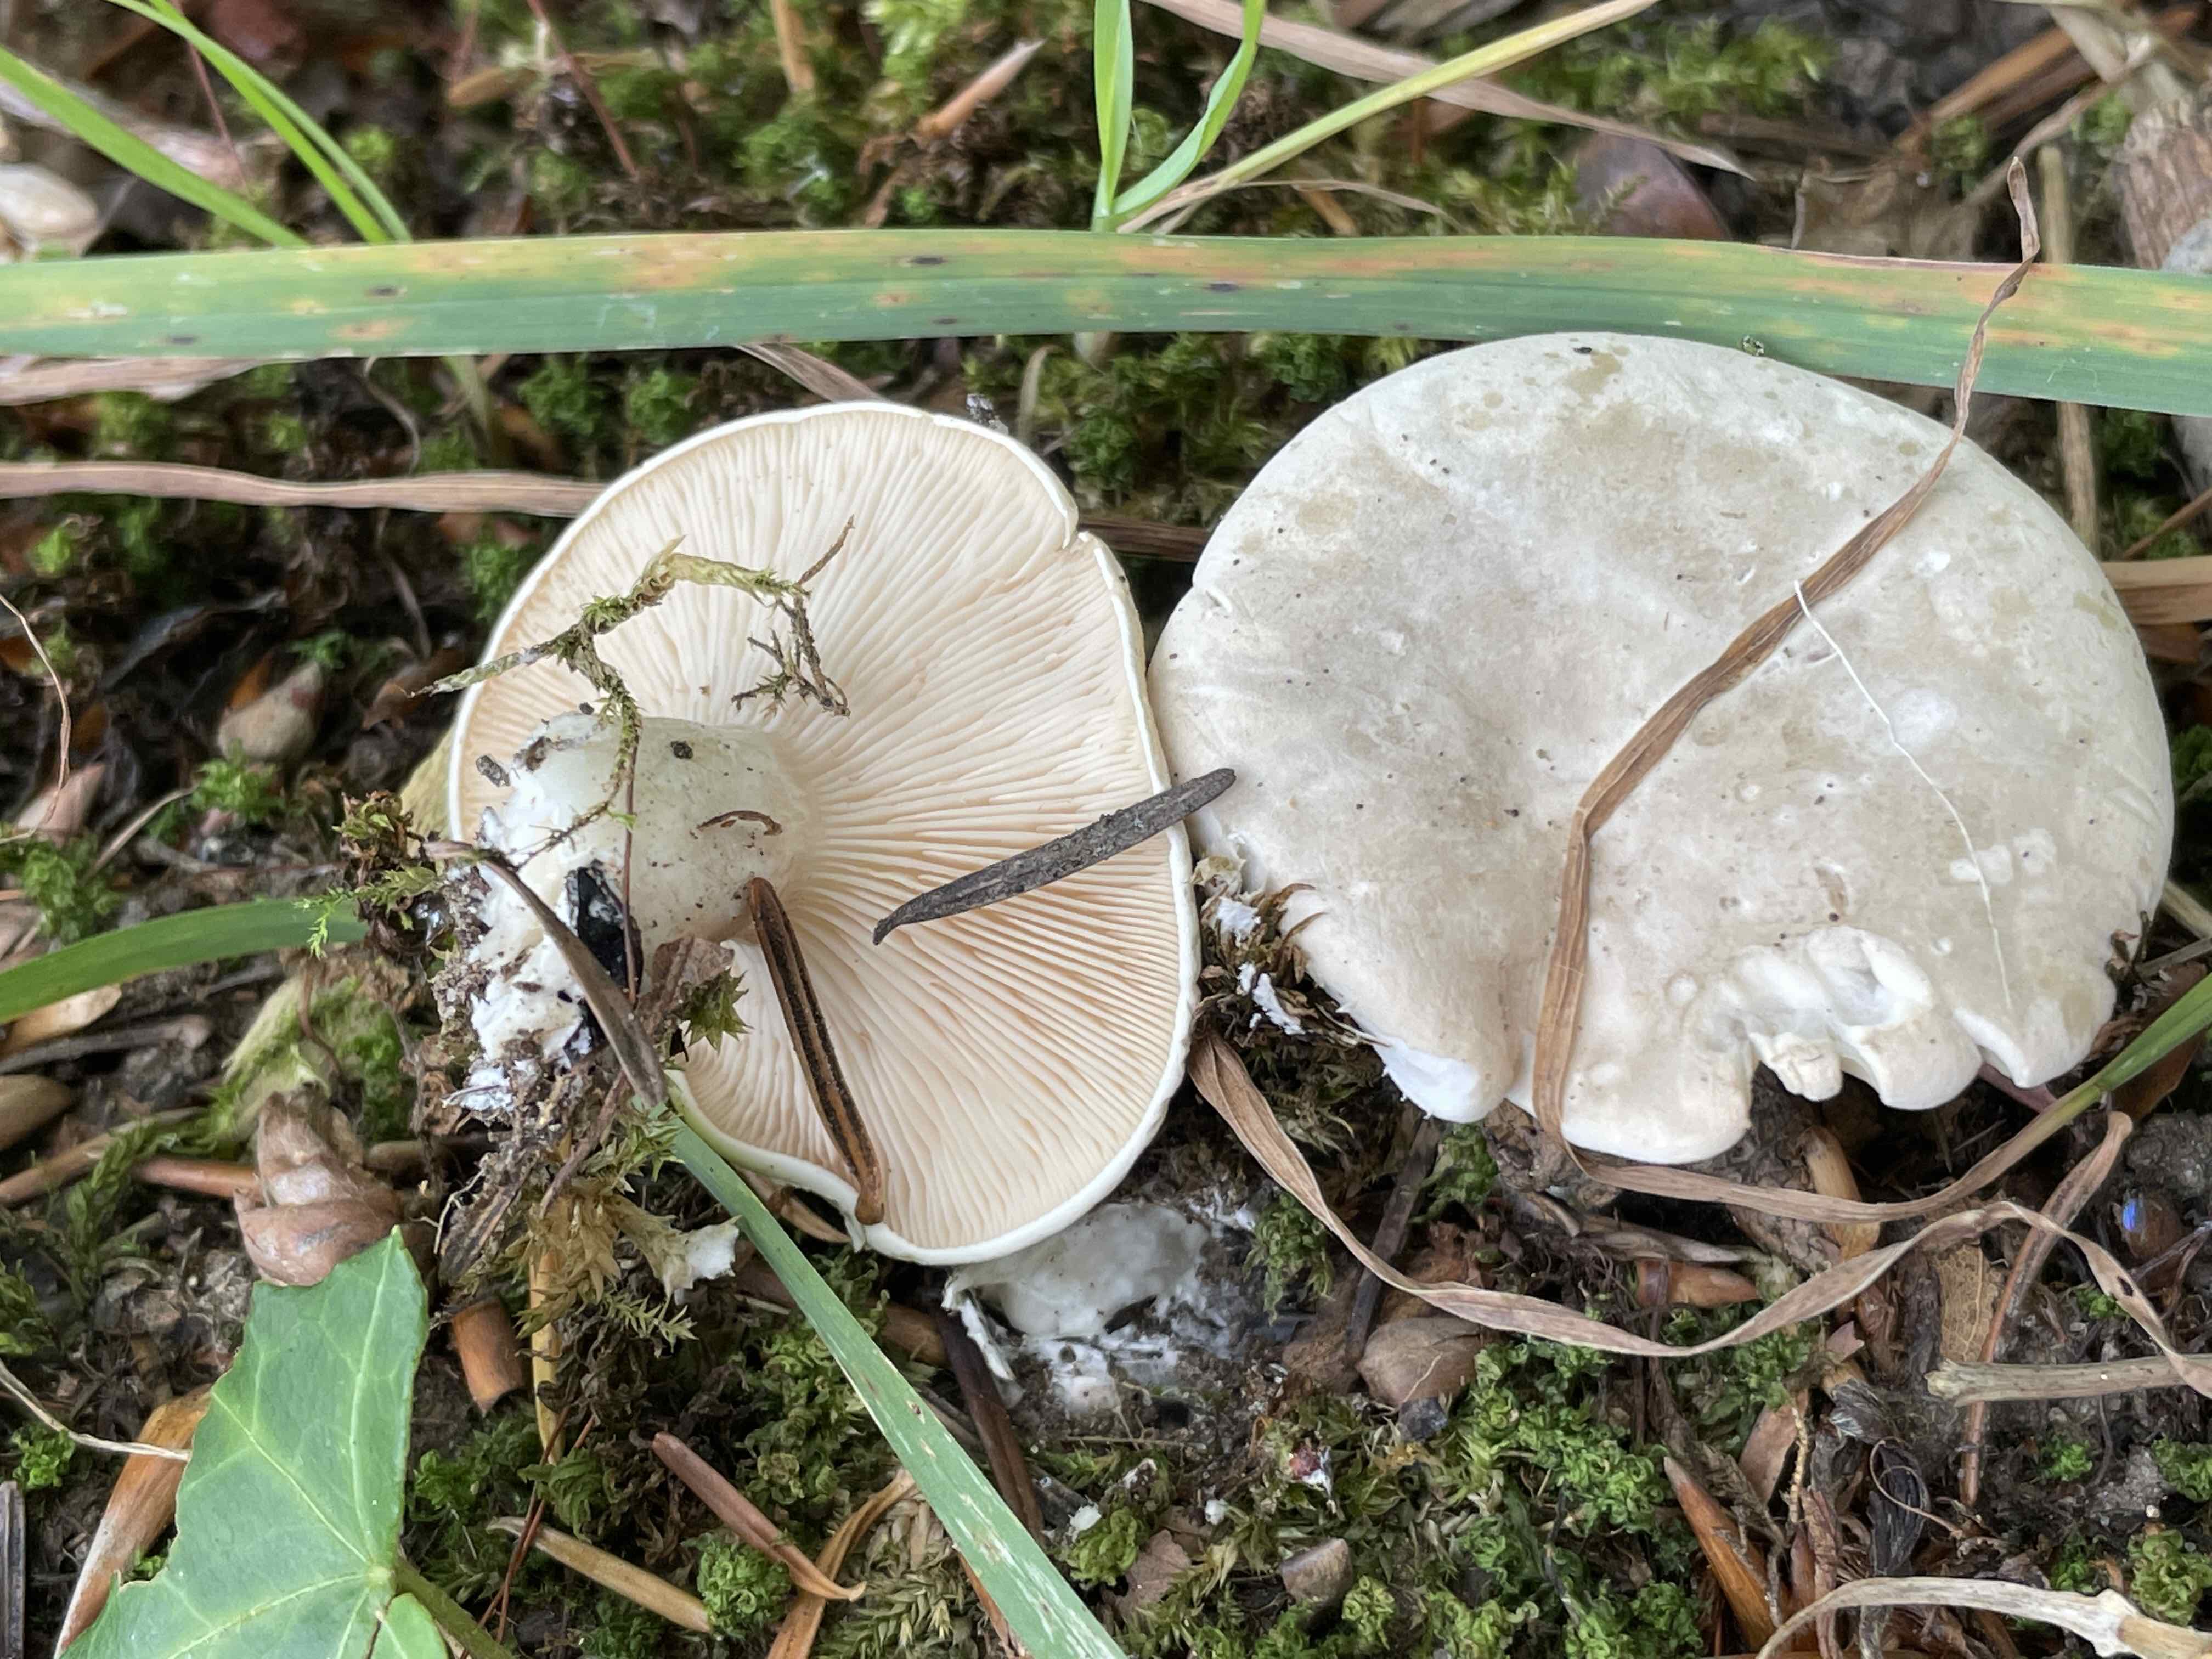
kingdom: Fungi
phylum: Basidiomycota
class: Agaricomycetes
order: Agaricales
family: Entolomataceae
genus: Clitopilus
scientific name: Clitopilus prunulus
